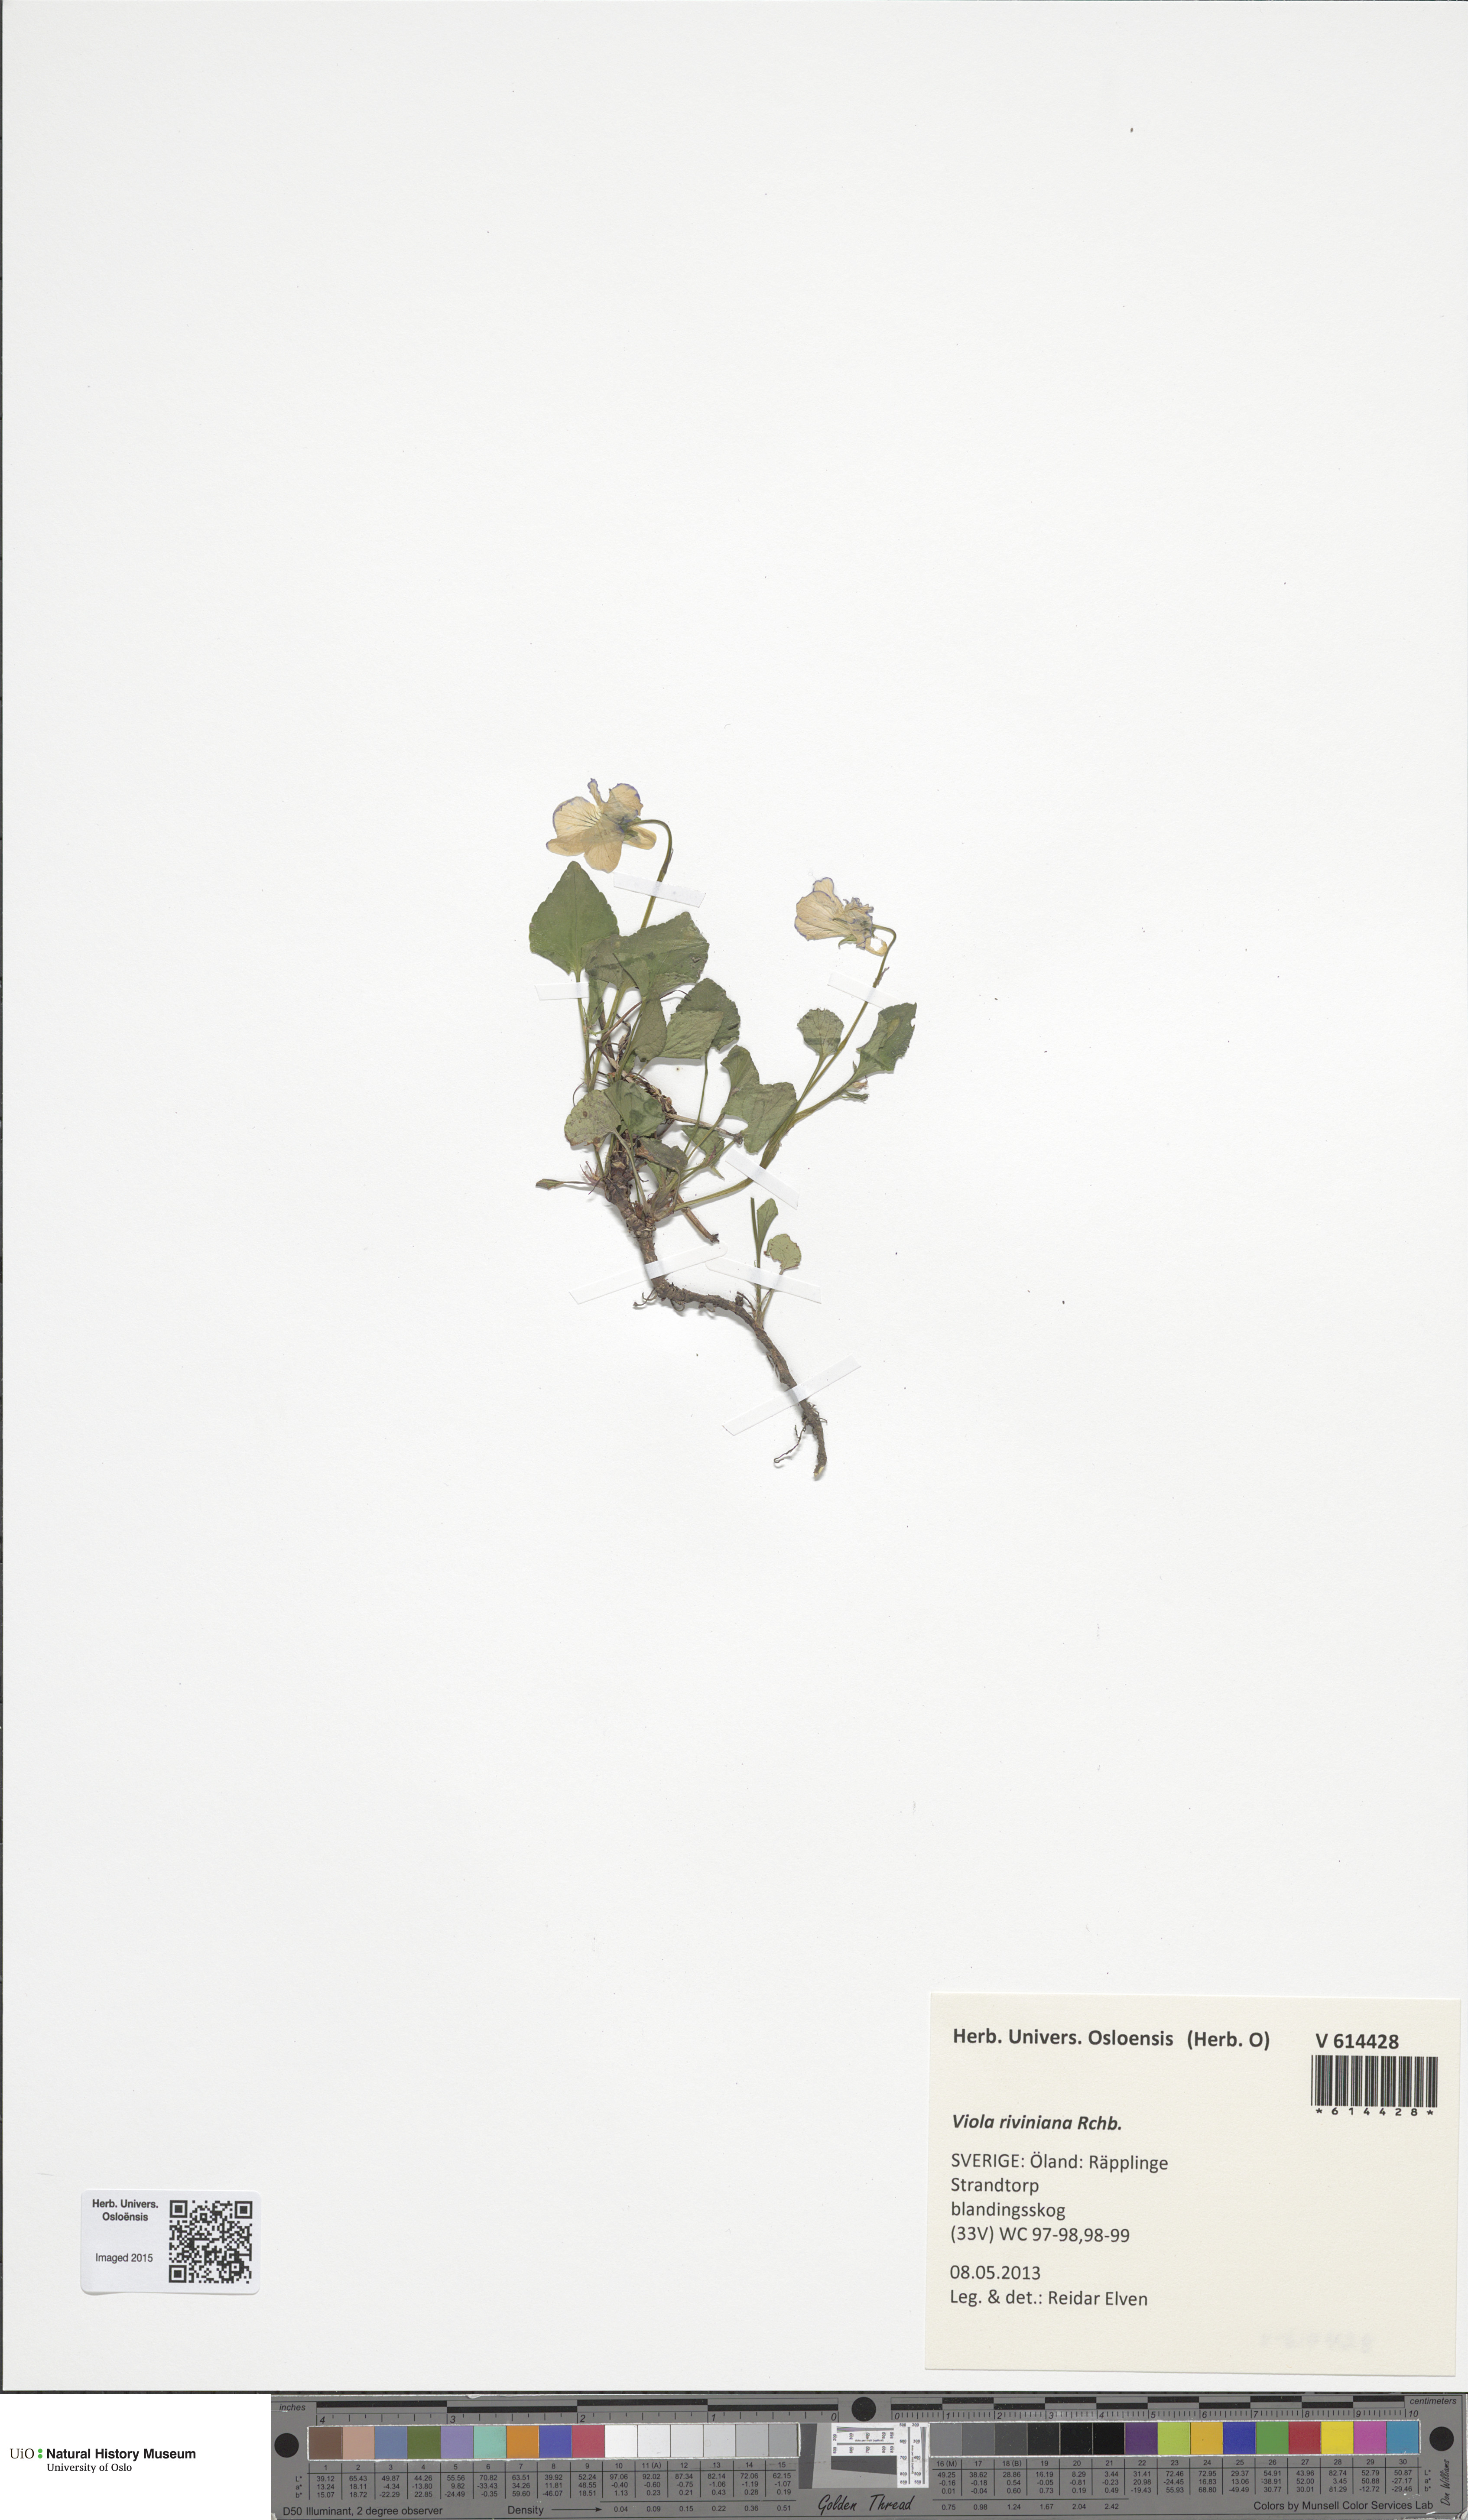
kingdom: Plantae
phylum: Tracheophyta
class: Magnoliopsida
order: Malpighiales
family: Violaceae
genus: Viola
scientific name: Viola riviniana
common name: Common dog-violet
